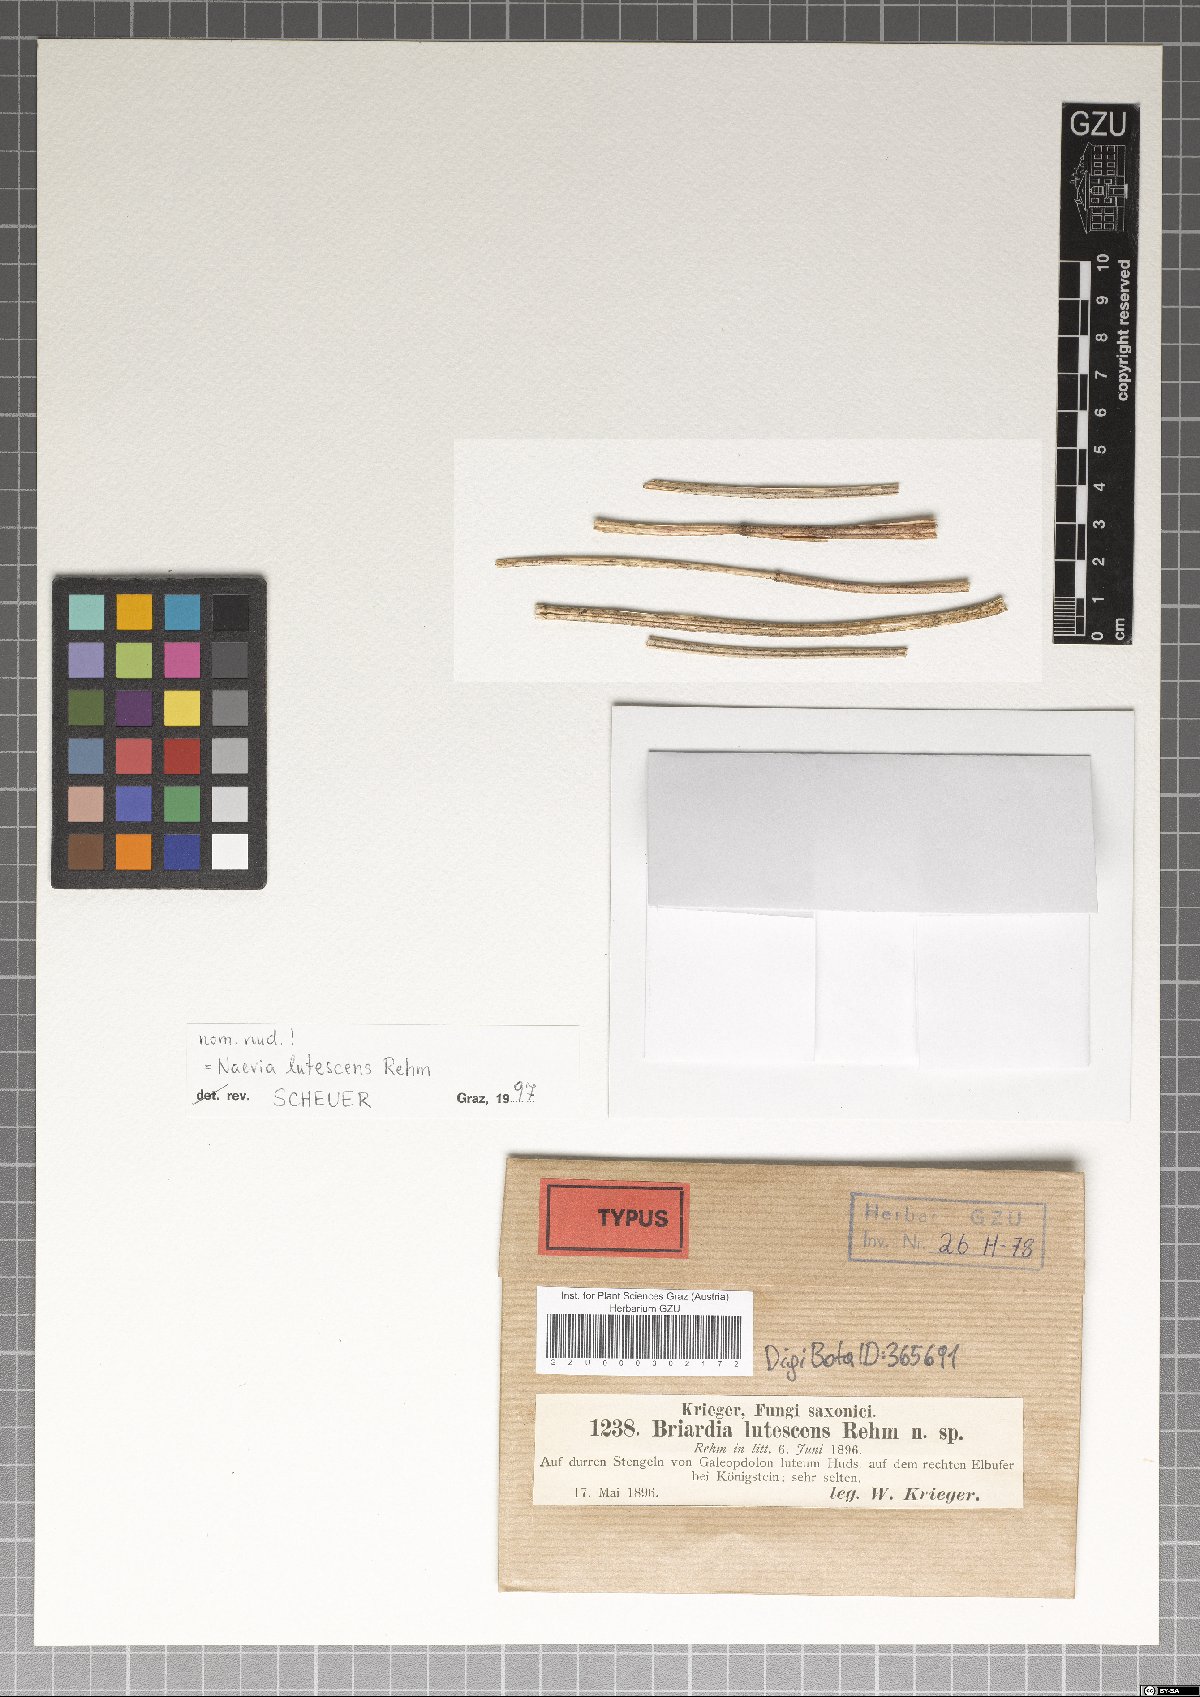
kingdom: Fungi
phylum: Ascomycota
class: Leotiomycetes
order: Helotiales
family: Calloriaceae
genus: Briardia
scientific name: Briardia lutescens
